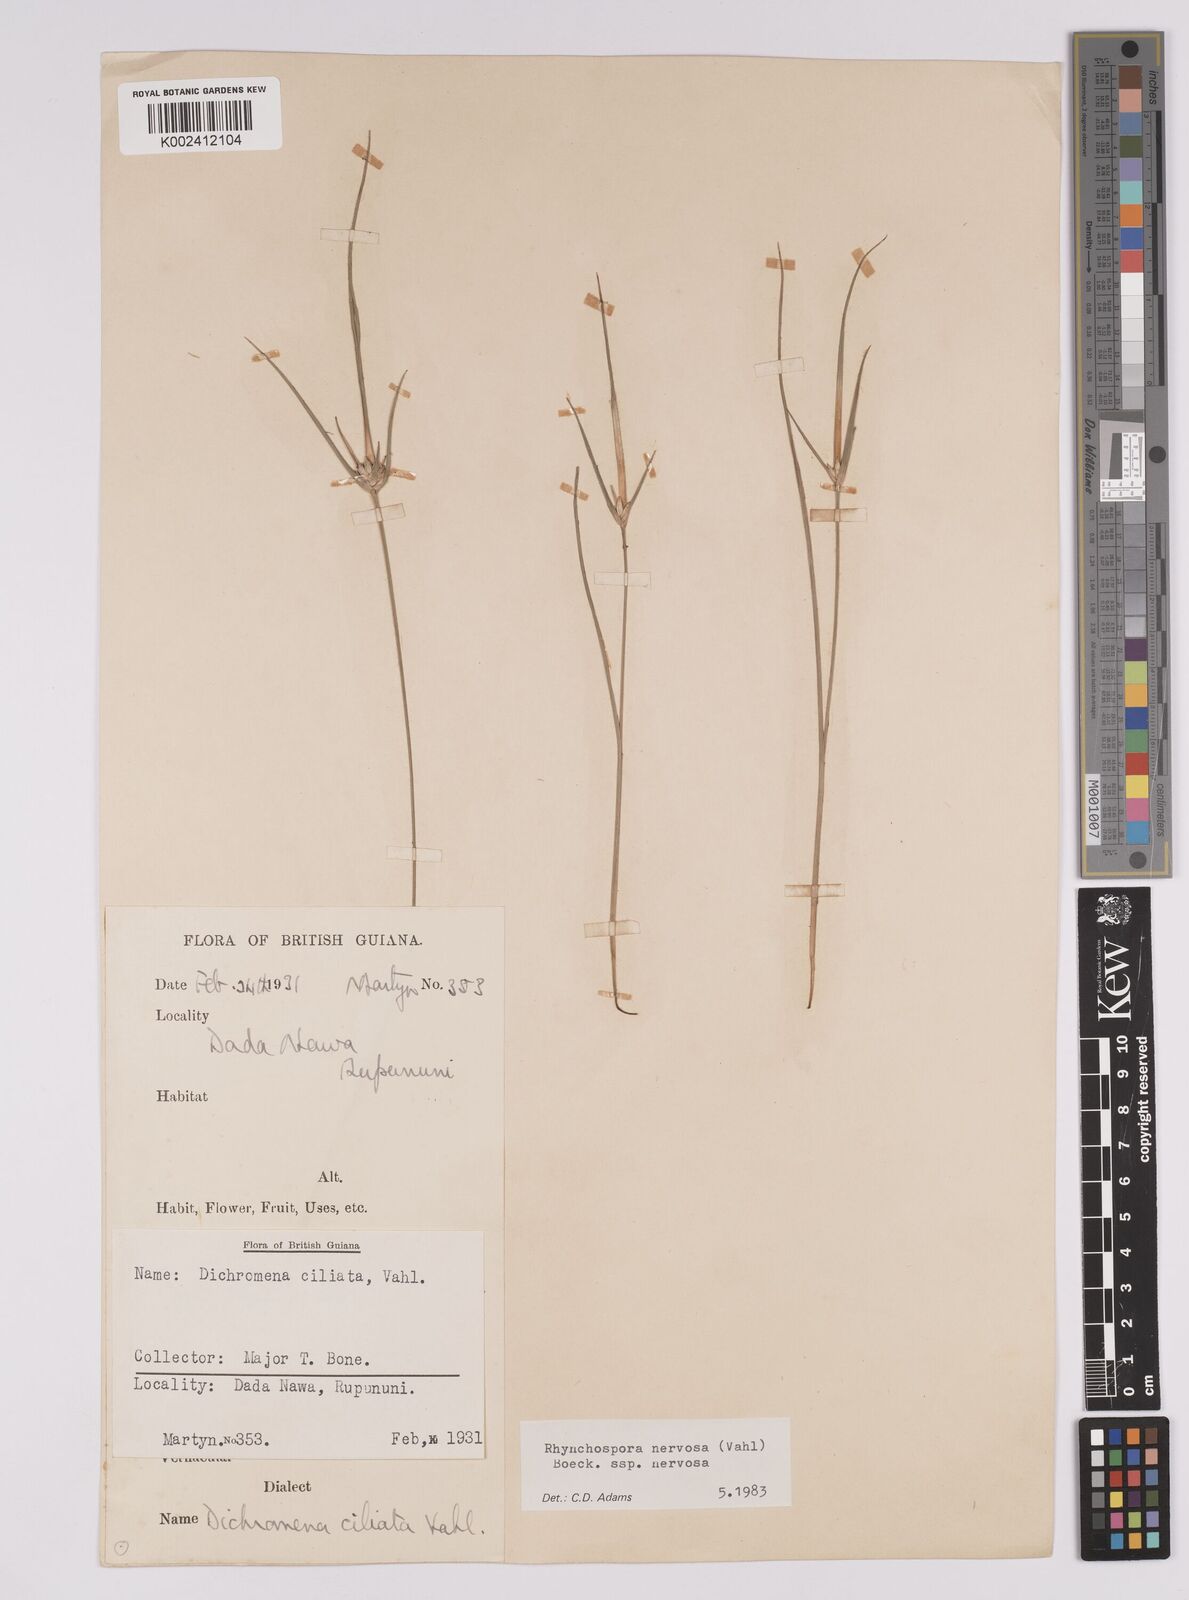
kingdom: Plantae
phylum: Tracheophyta
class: Liliopsida
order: Poales
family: Cyperaceae
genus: Rhynchospora
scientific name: Rhynchospora nervosa
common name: Star sedge
